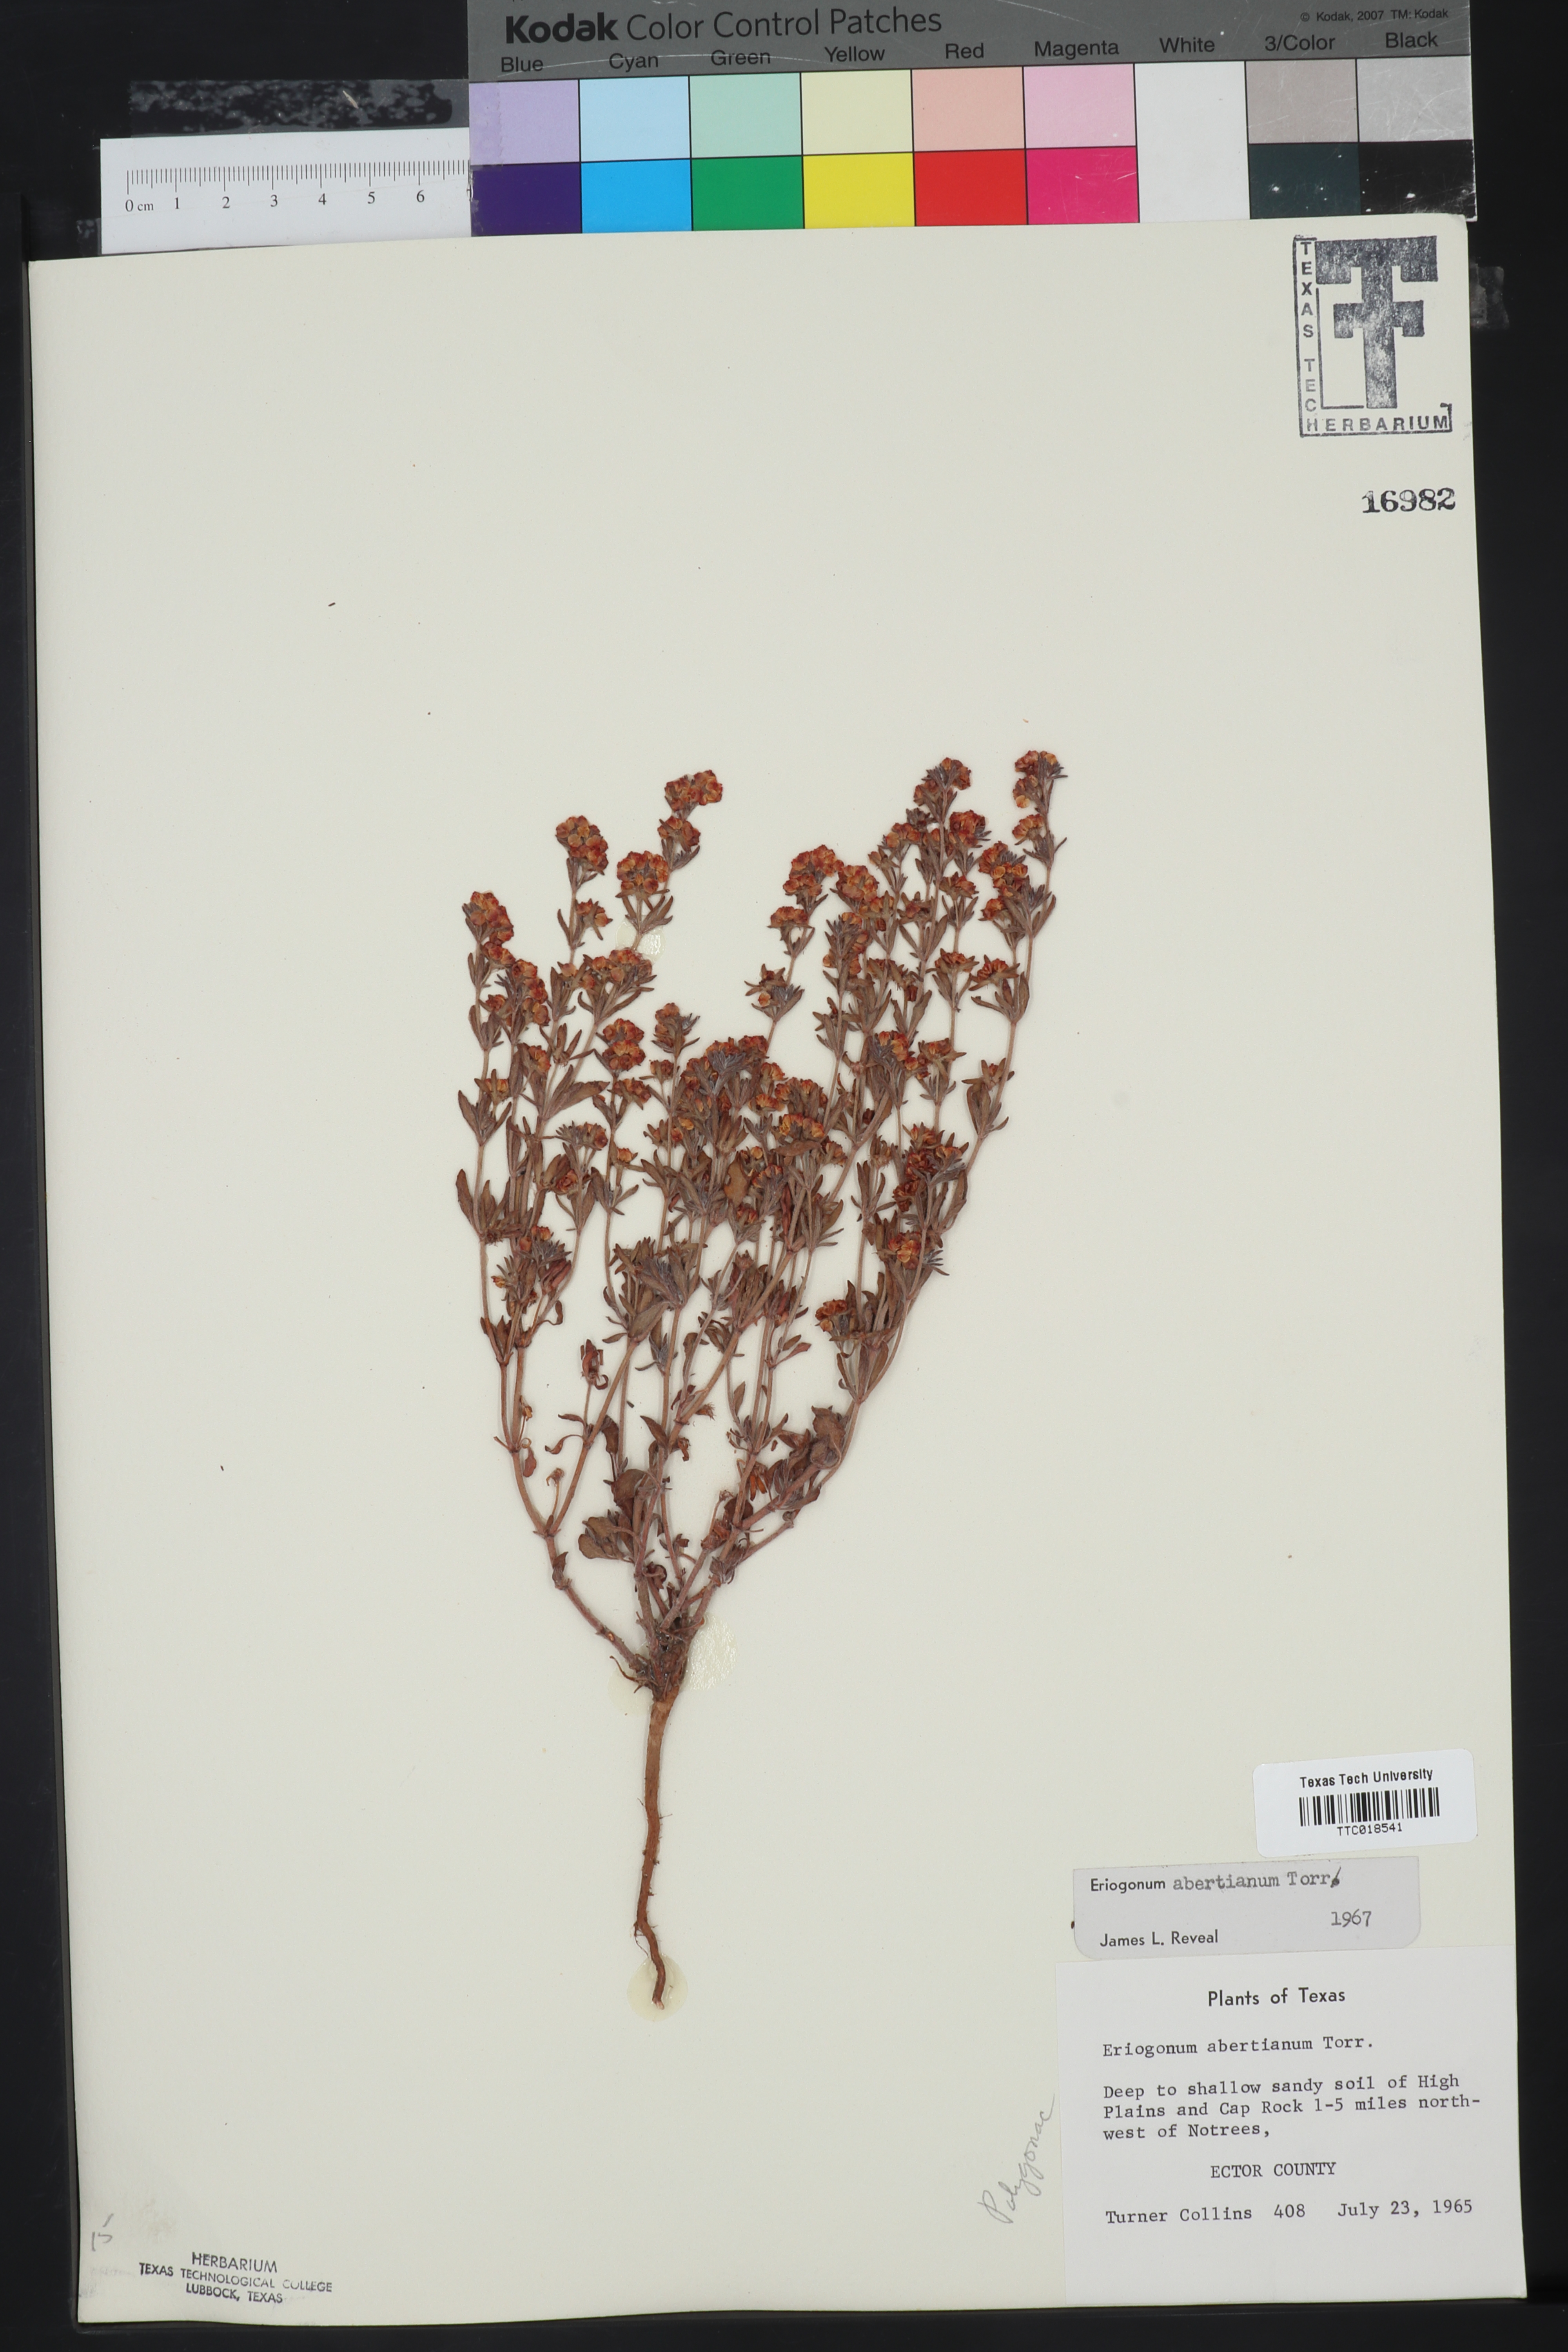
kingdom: Plantae
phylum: Tracheophyta
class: Magnoliopsida
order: Caryophyllales
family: Polygonaceae
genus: Eriogonum
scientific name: Eriogonum abertianum
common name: Abert's wild buckwheat
